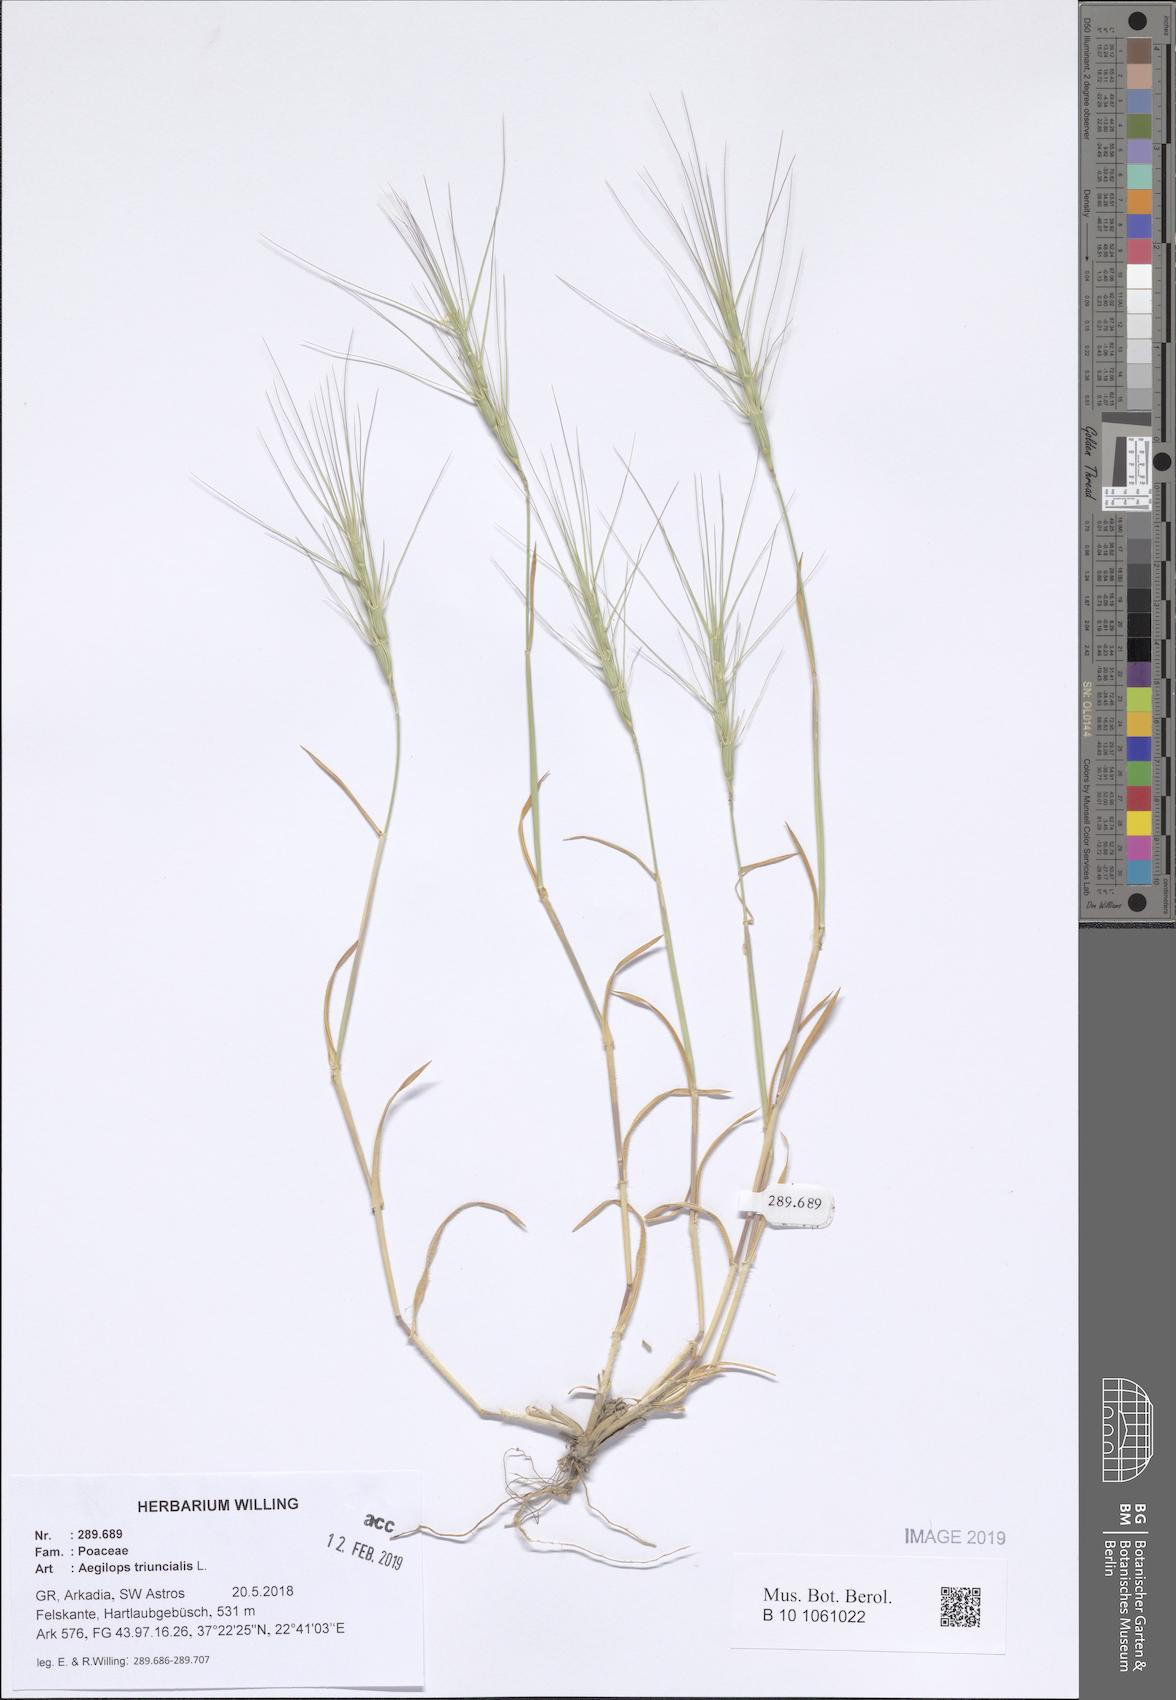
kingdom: Plantae
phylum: Tracheophyta
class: Liliopsida
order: Poales
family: Poaceae
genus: Aegilops
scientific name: Aegilops triuncialis
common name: Barb goat grass
